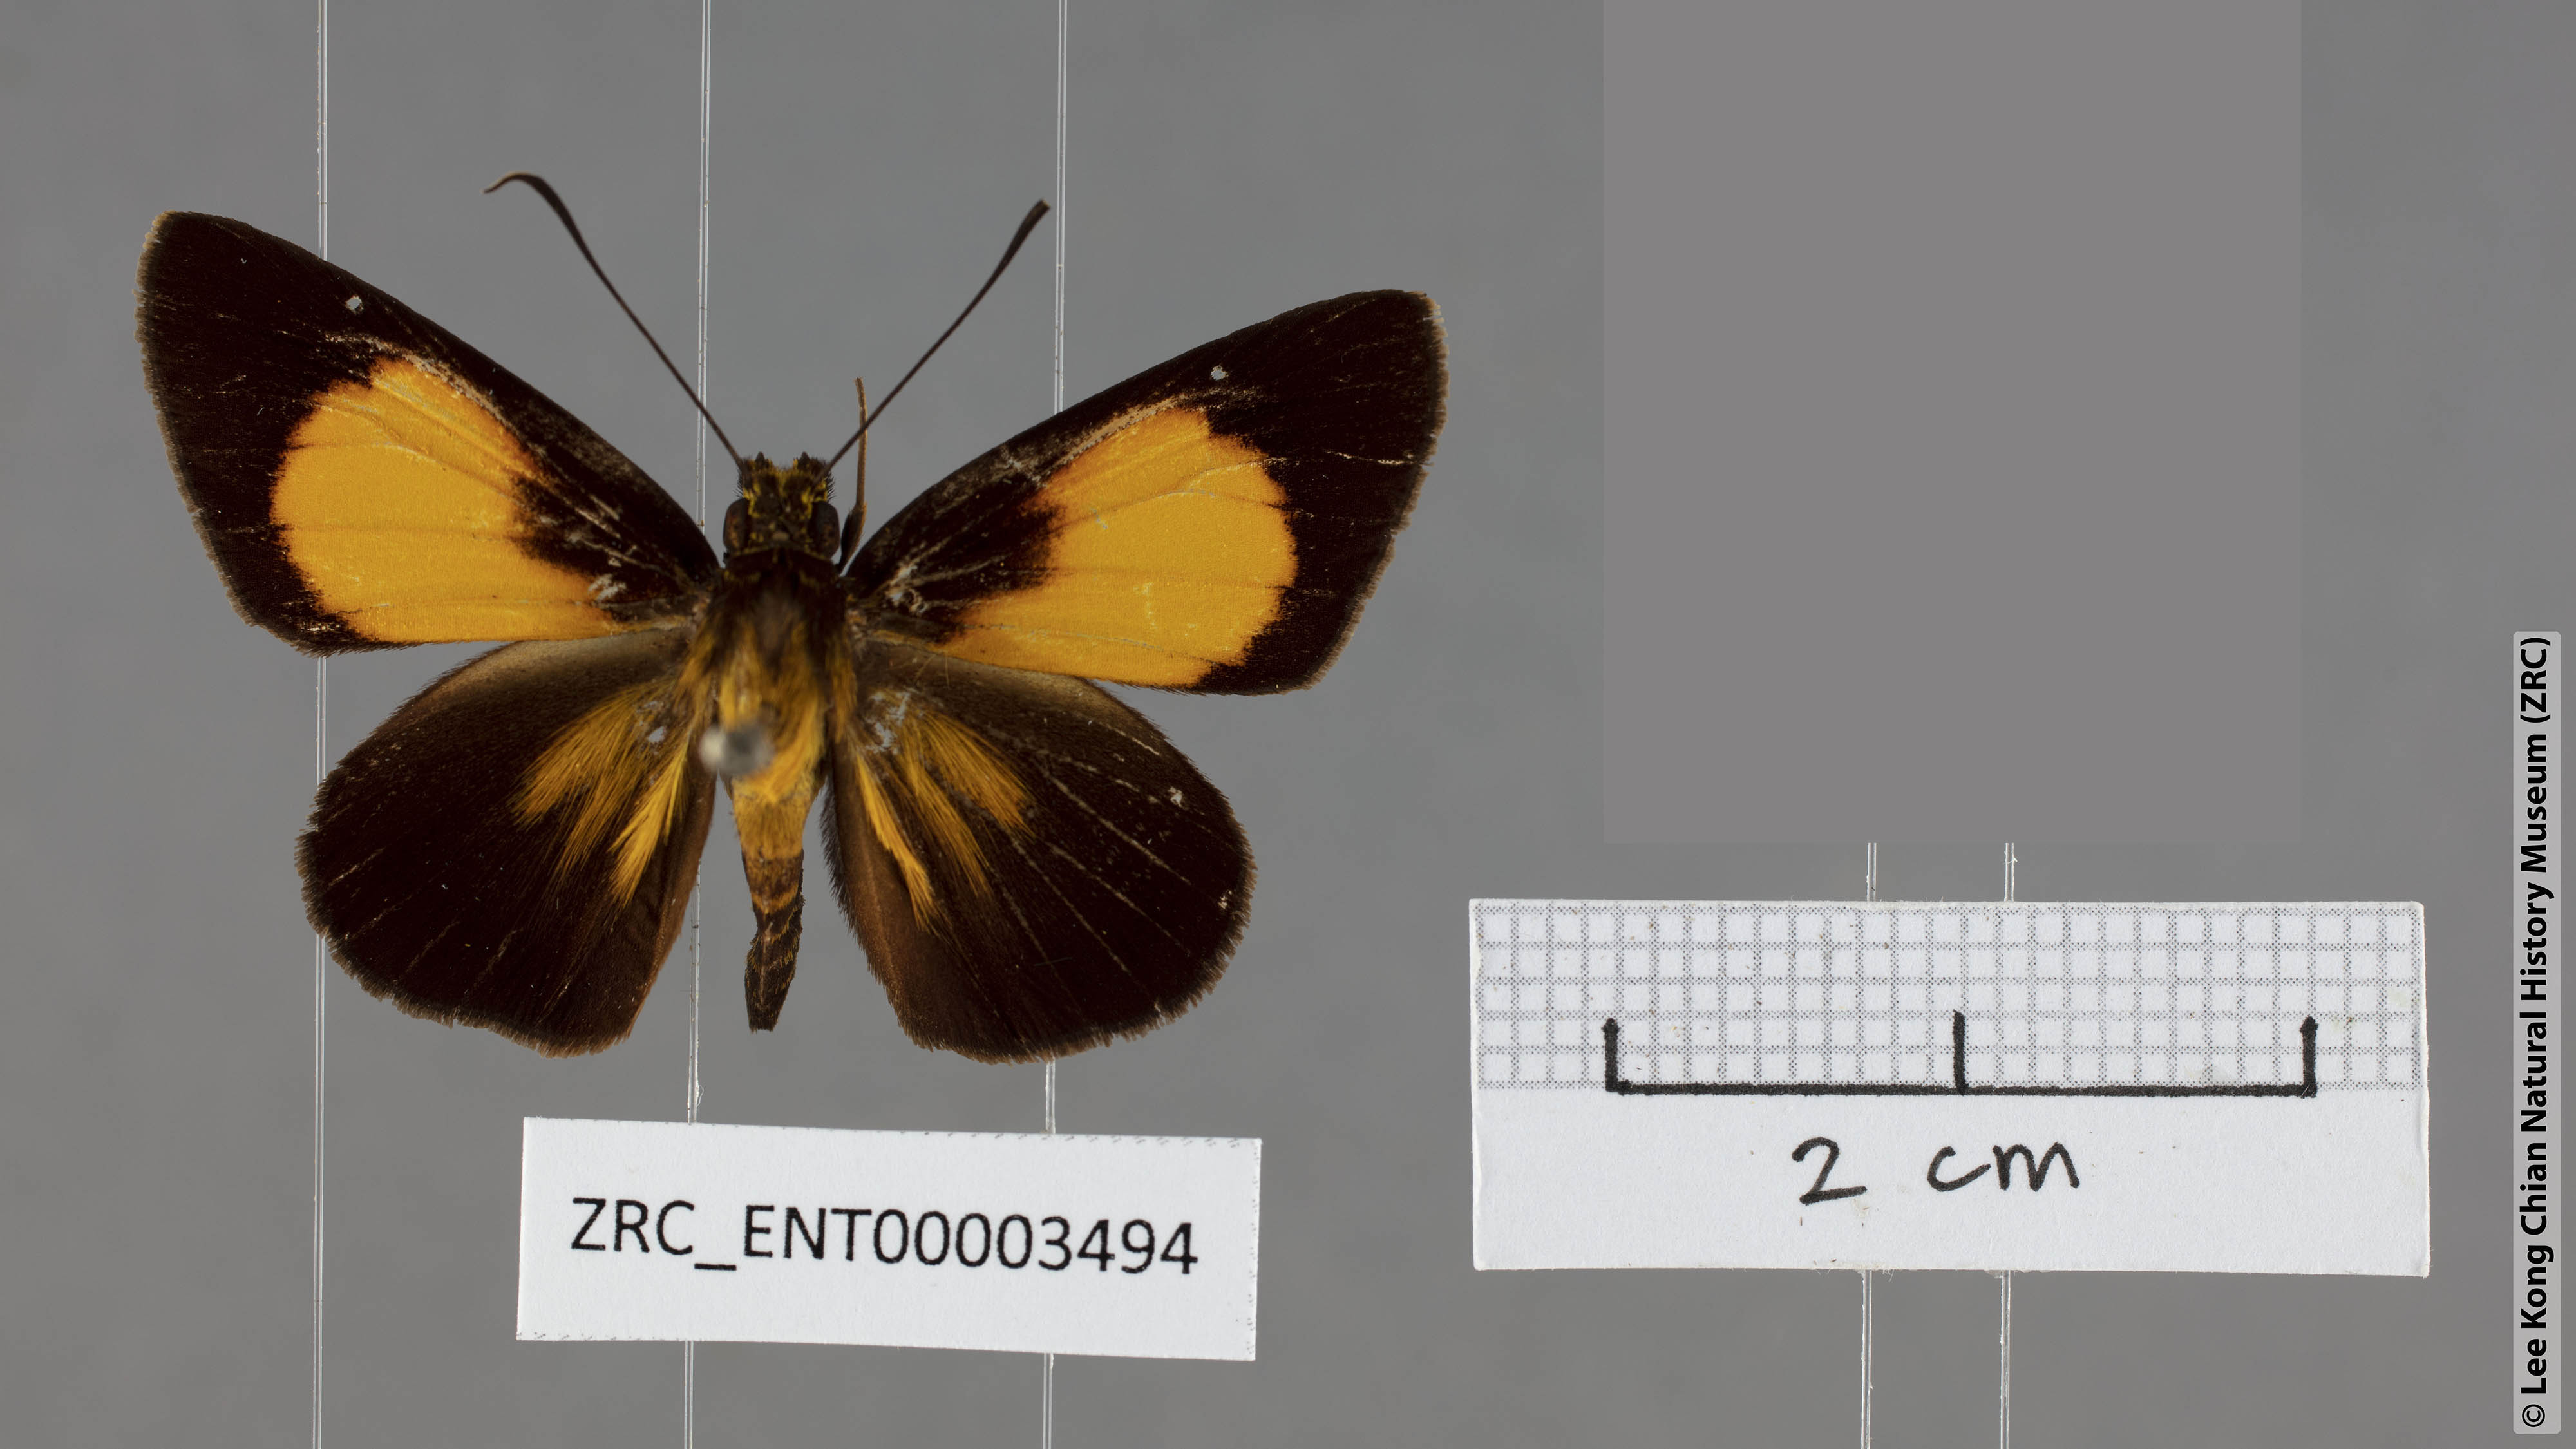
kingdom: Animalia
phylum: Arthropoda
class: Insecta
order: Lepidoptera
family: Hesperiidae
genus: Pseudokerana
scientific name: Pseudokerana fulgur
